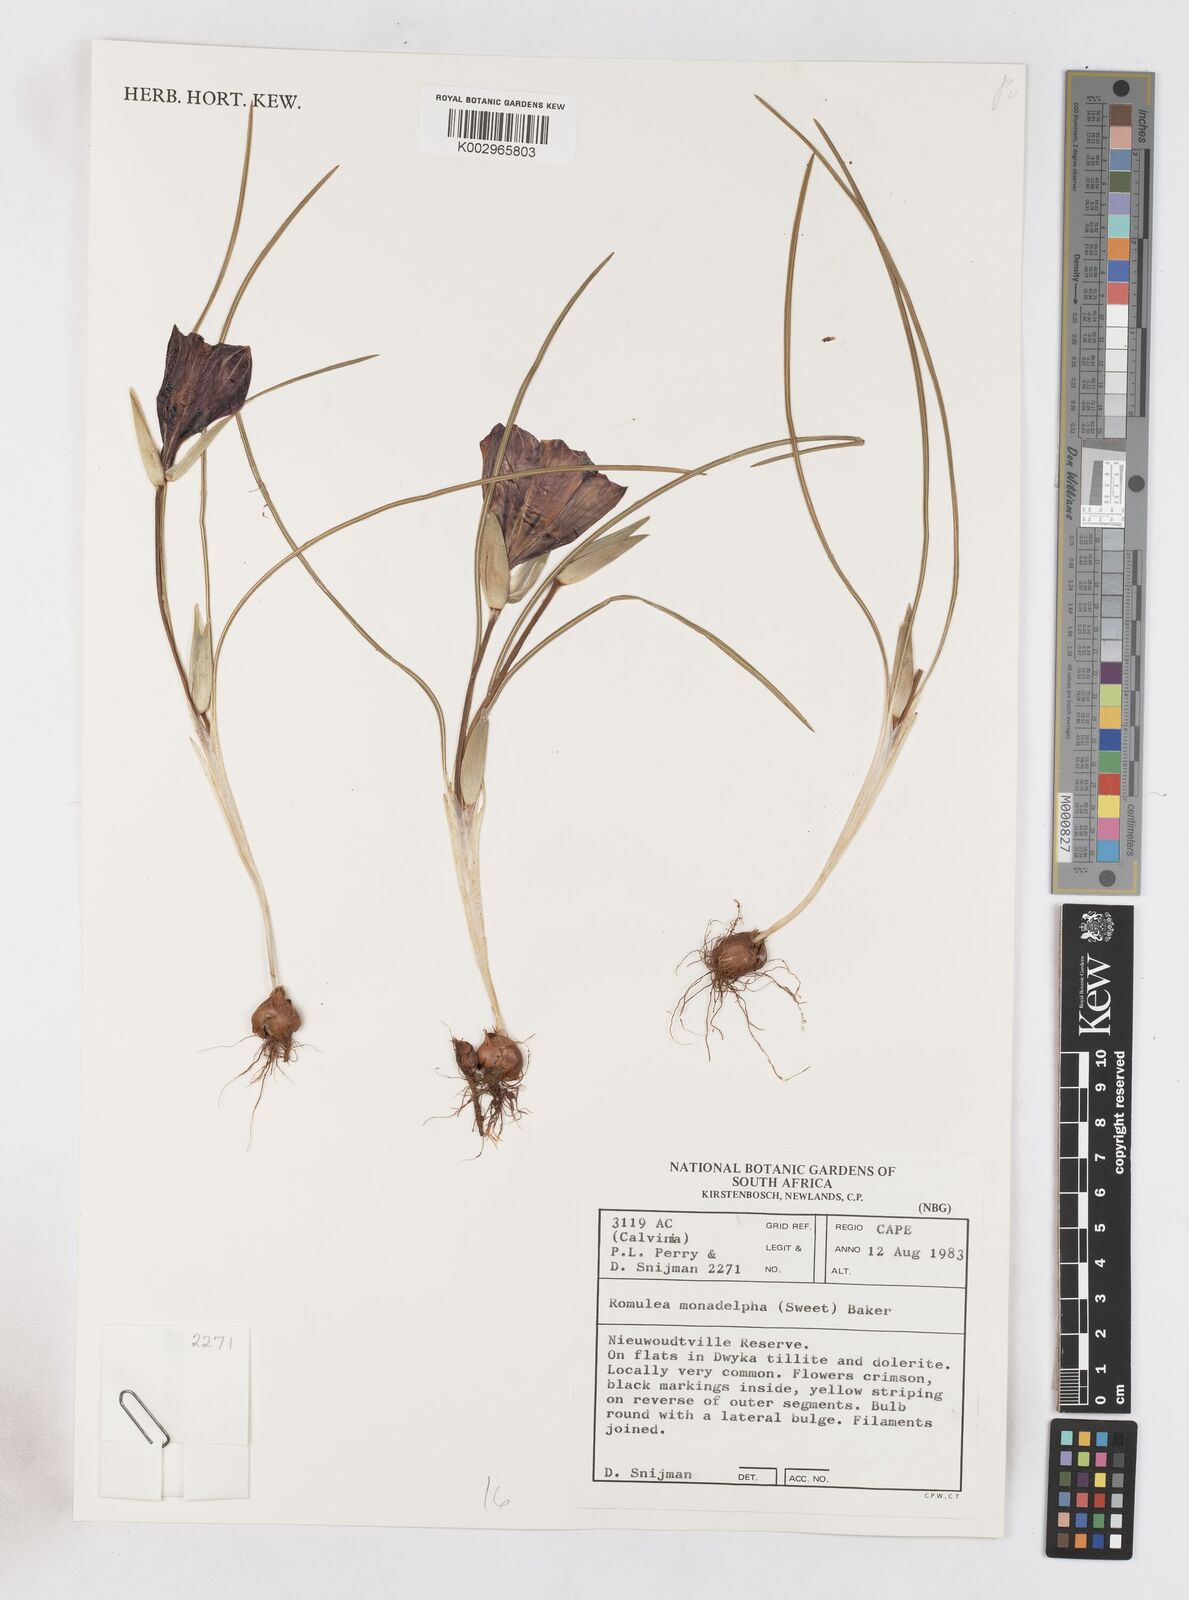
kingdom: Plantae
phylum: Tracheophyta
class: Liliopsida
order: Asparagales
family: Iridaceae
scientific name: Iridaceae
